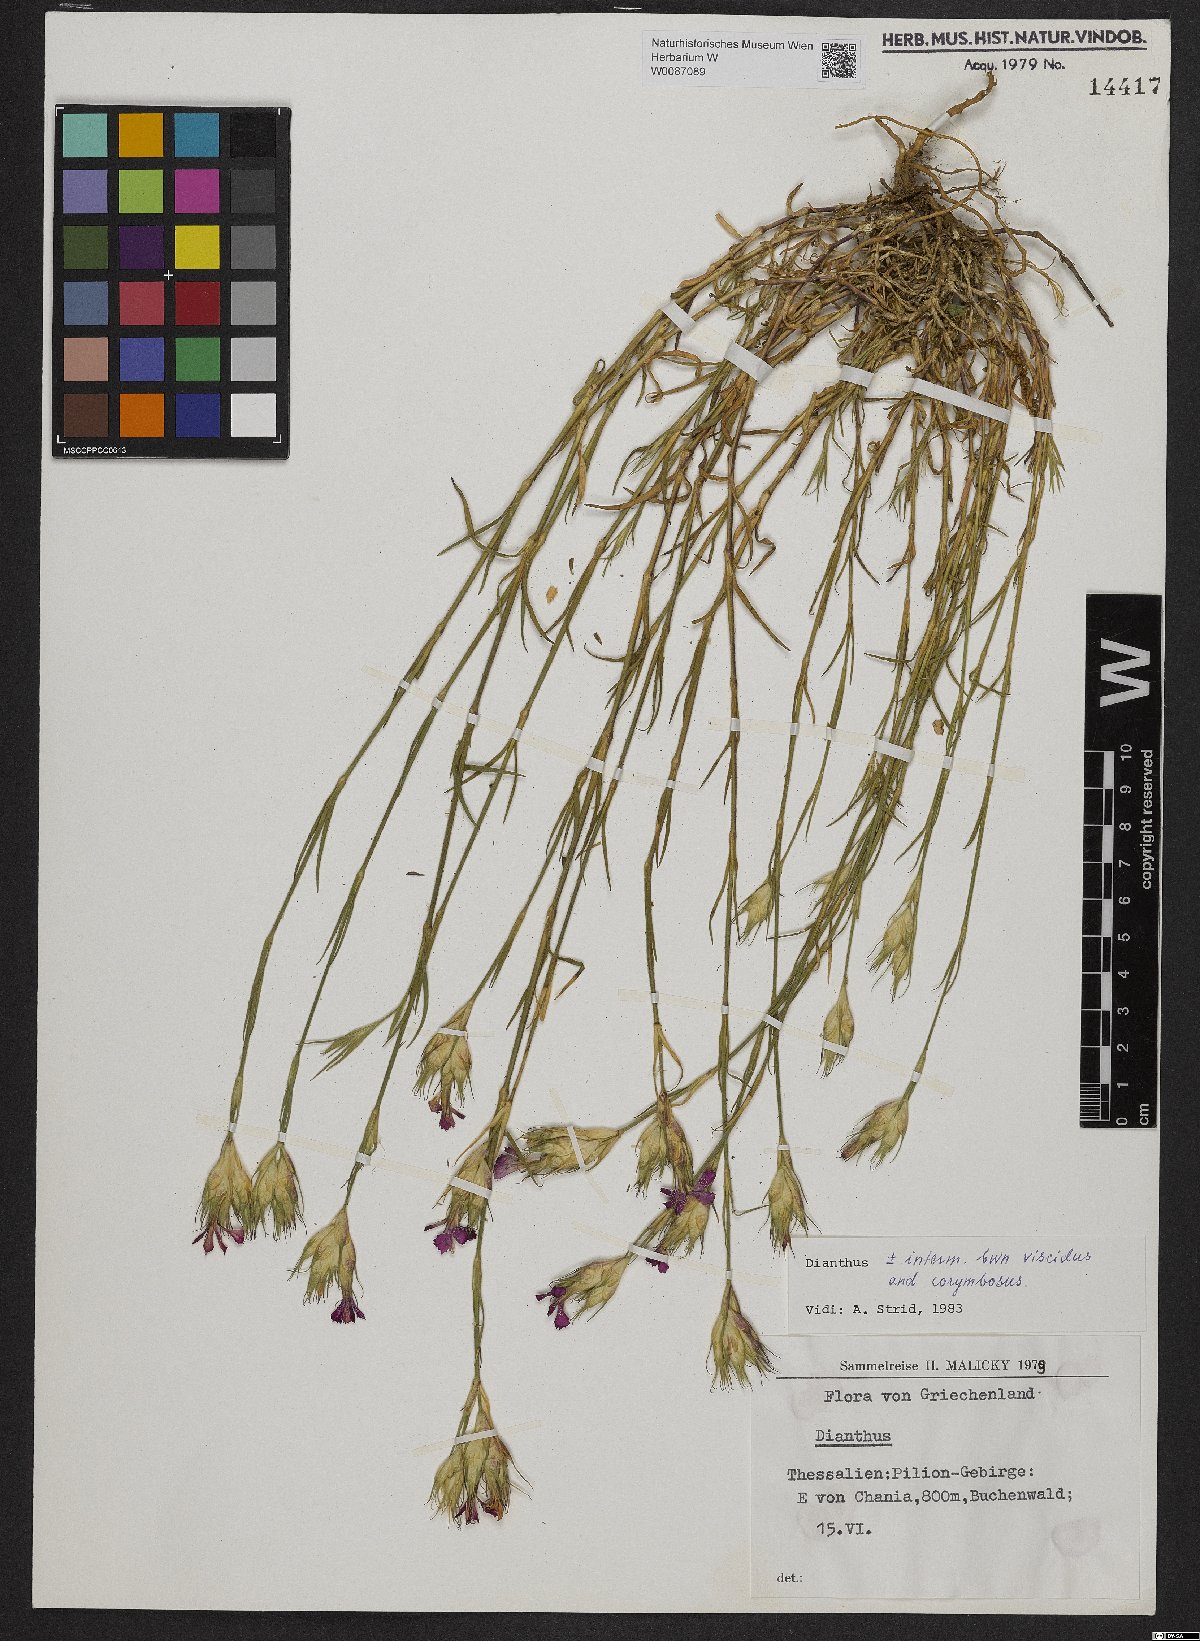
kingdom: Plantae
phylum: Tracheophyta
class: Magnoliopsida
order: Caryophyllales
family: Caryophyllaceae
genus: Dianthus
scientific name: Dianthus viscidus
